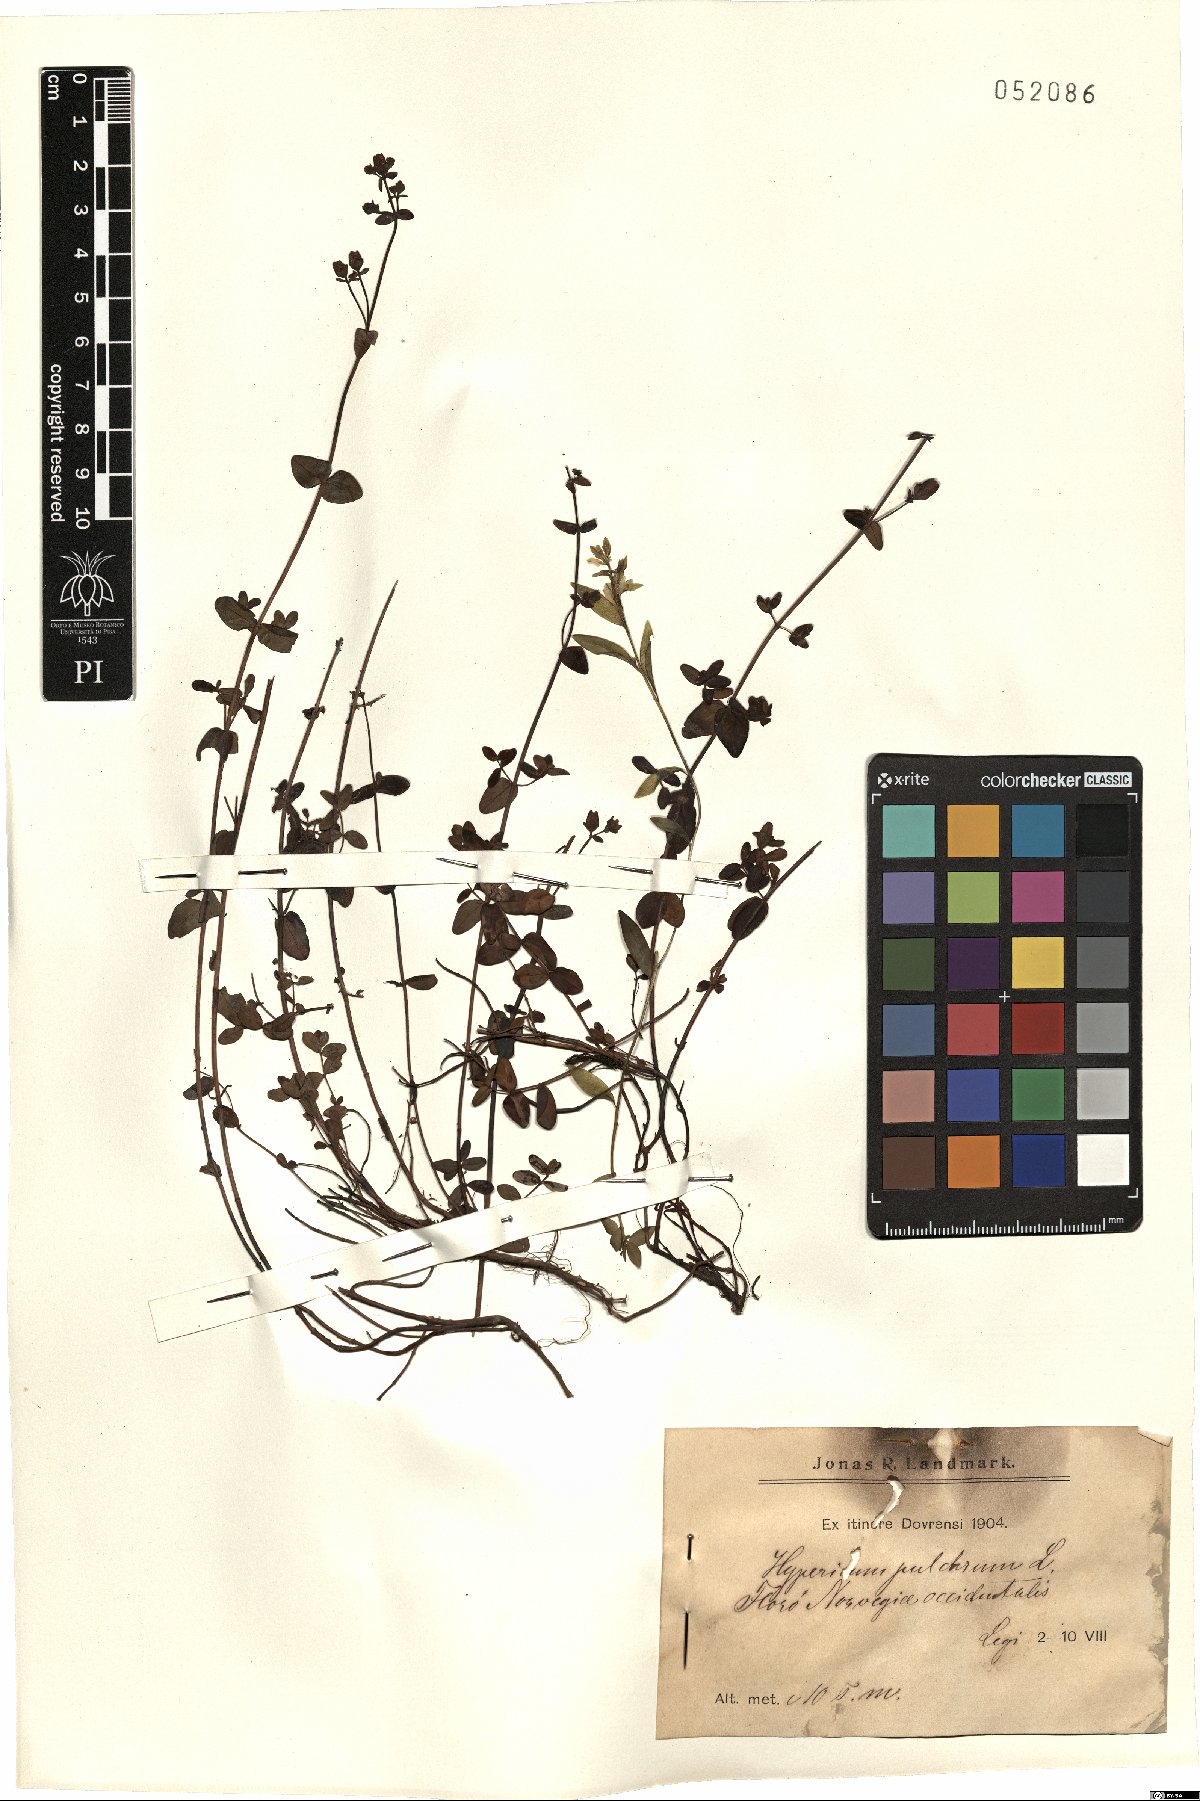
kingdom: Plantae
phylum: Tracheophyta
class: Magnoliopsida
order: Malpighiales
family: Hypericaceae
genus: Hypericum
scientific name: Hypericum pulchrum
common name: Slender st. john's-wort
